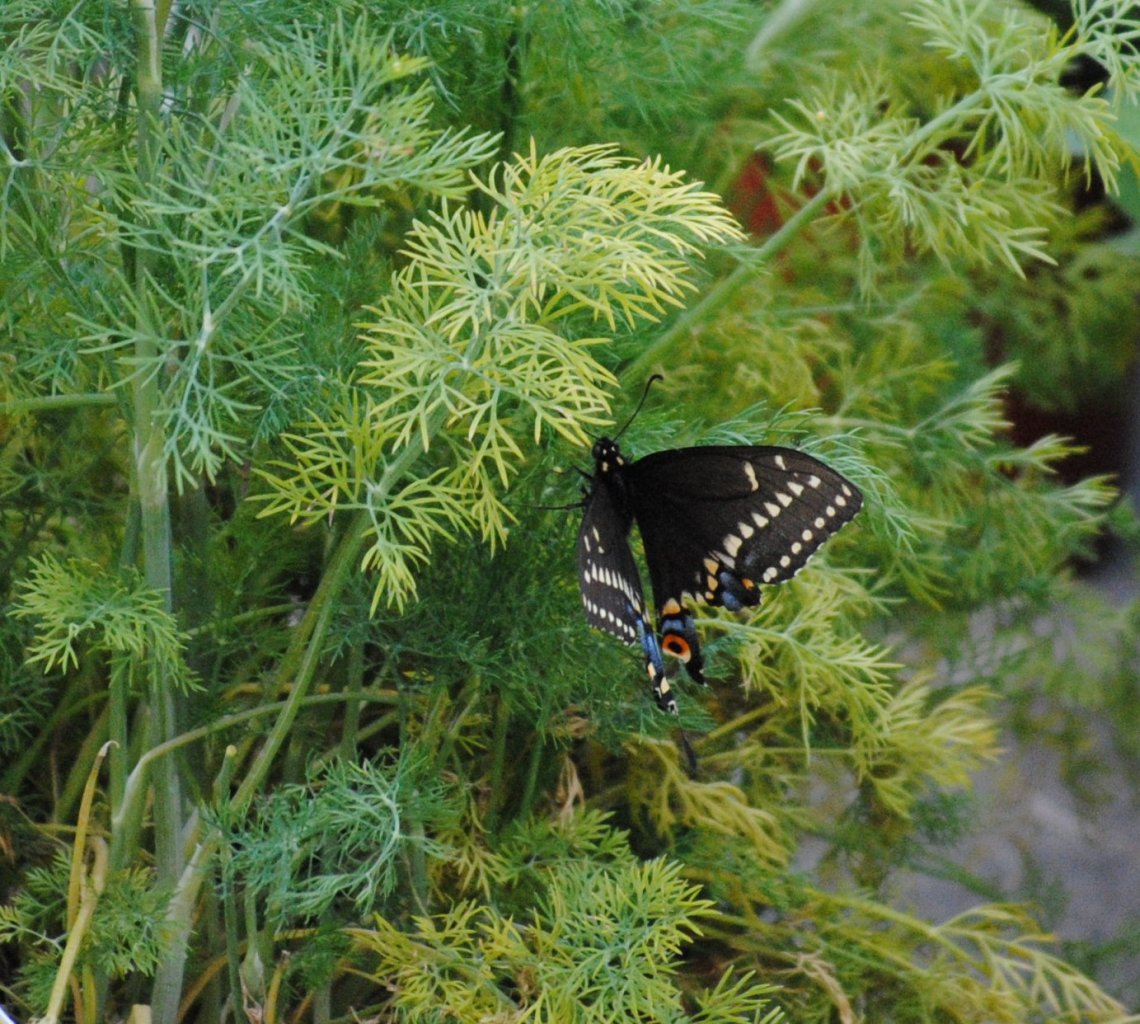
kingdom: Animalia
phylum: Arthropoda
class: Insecta
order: Lepidoptera
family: Papilionidae
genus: Papilio
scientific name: Papilio polyxenes
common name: Black Swallowtail
